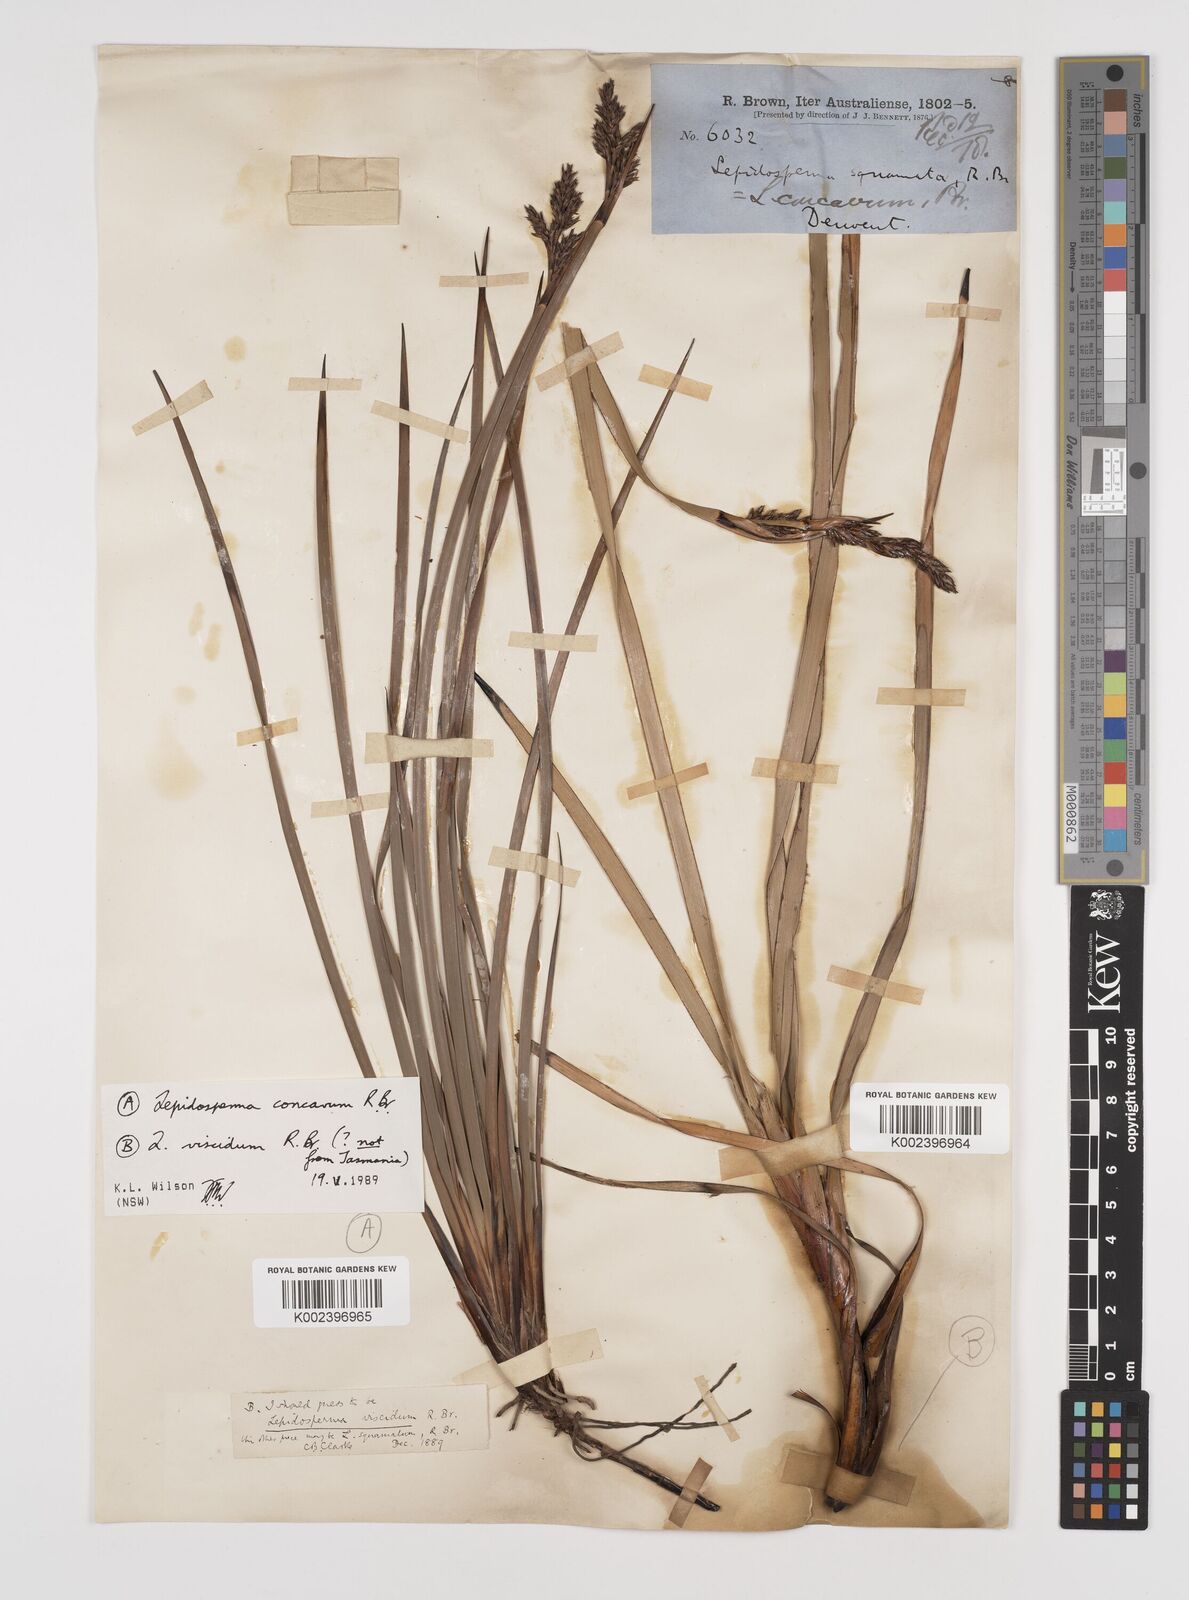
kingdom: Plantae
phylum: Tracheophyta
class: Liliopsida
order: Poales
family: Cyperaceae
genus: Lepidosperma
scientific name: Lepidosperma viscidum
